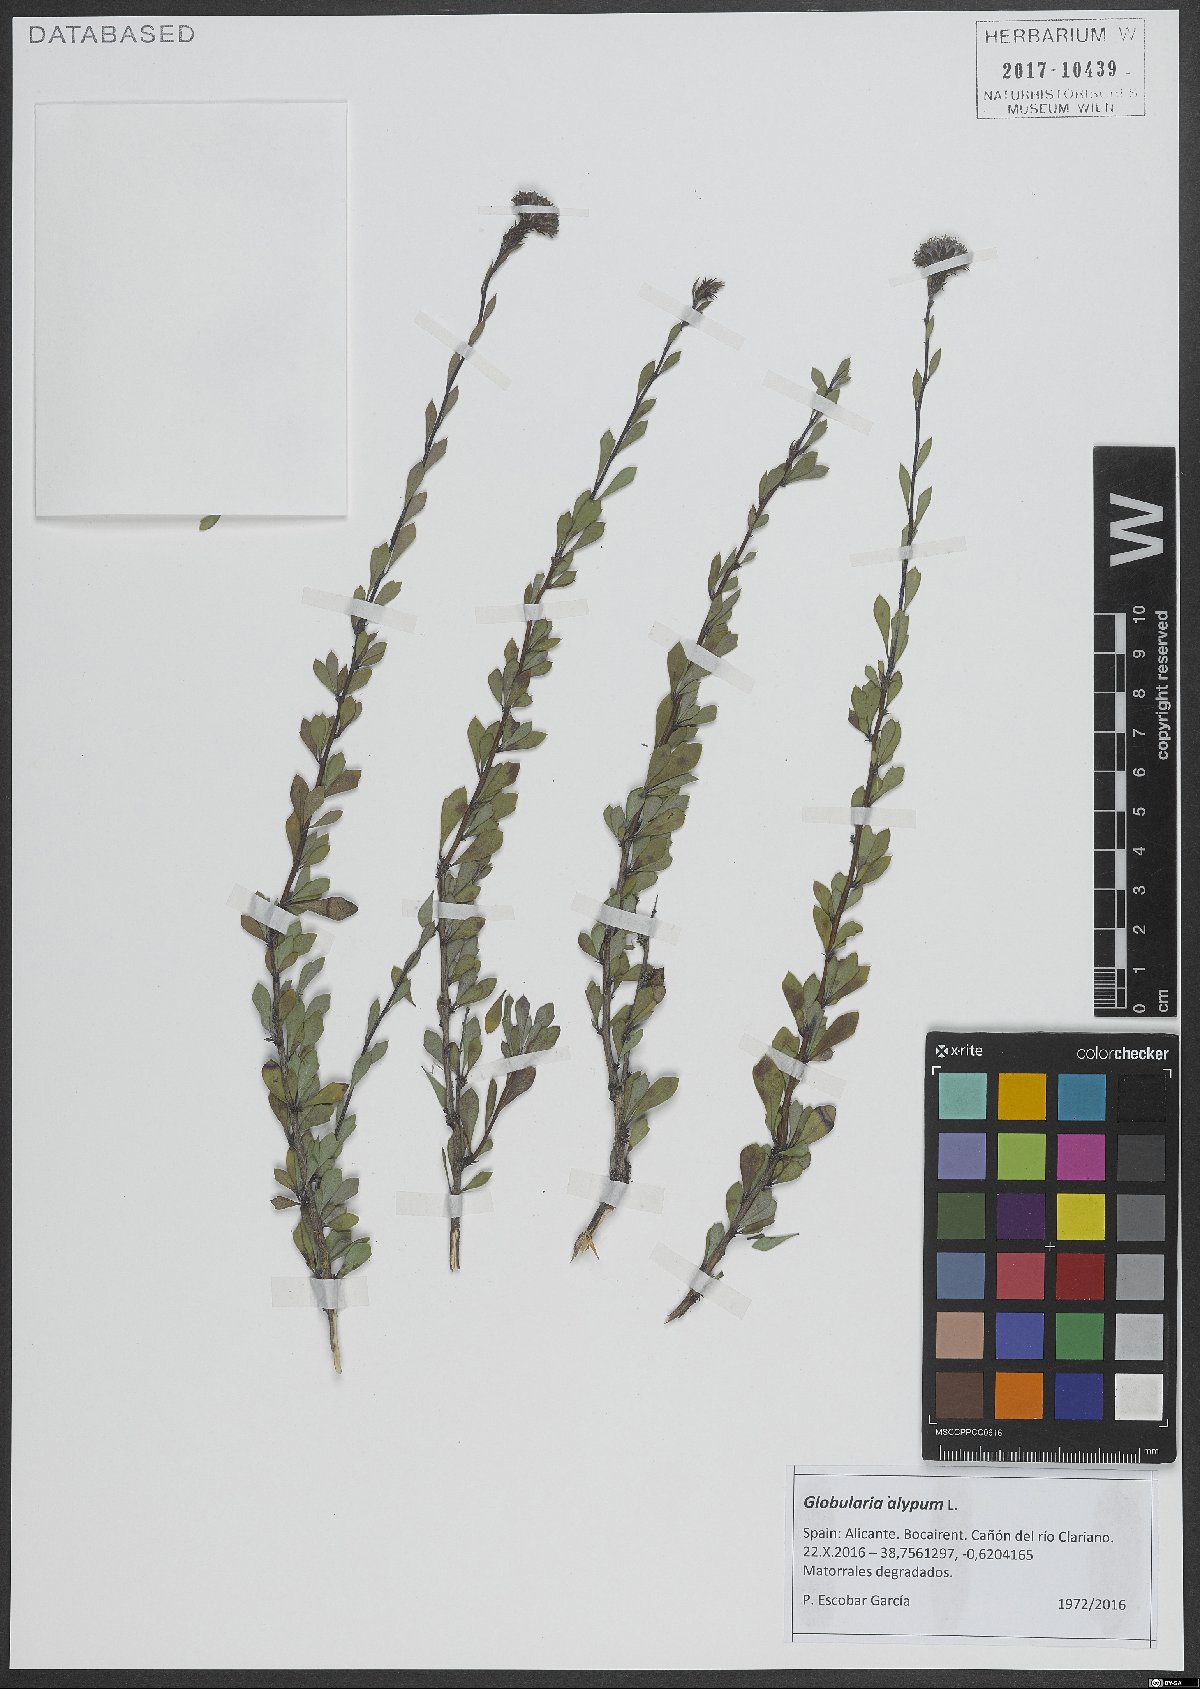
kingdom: Plantae
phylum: Tracheophyta
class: Magnoliopsida
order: Lamiales
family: Plantaginaceae
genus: Globularia
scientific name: Globularia alypum
